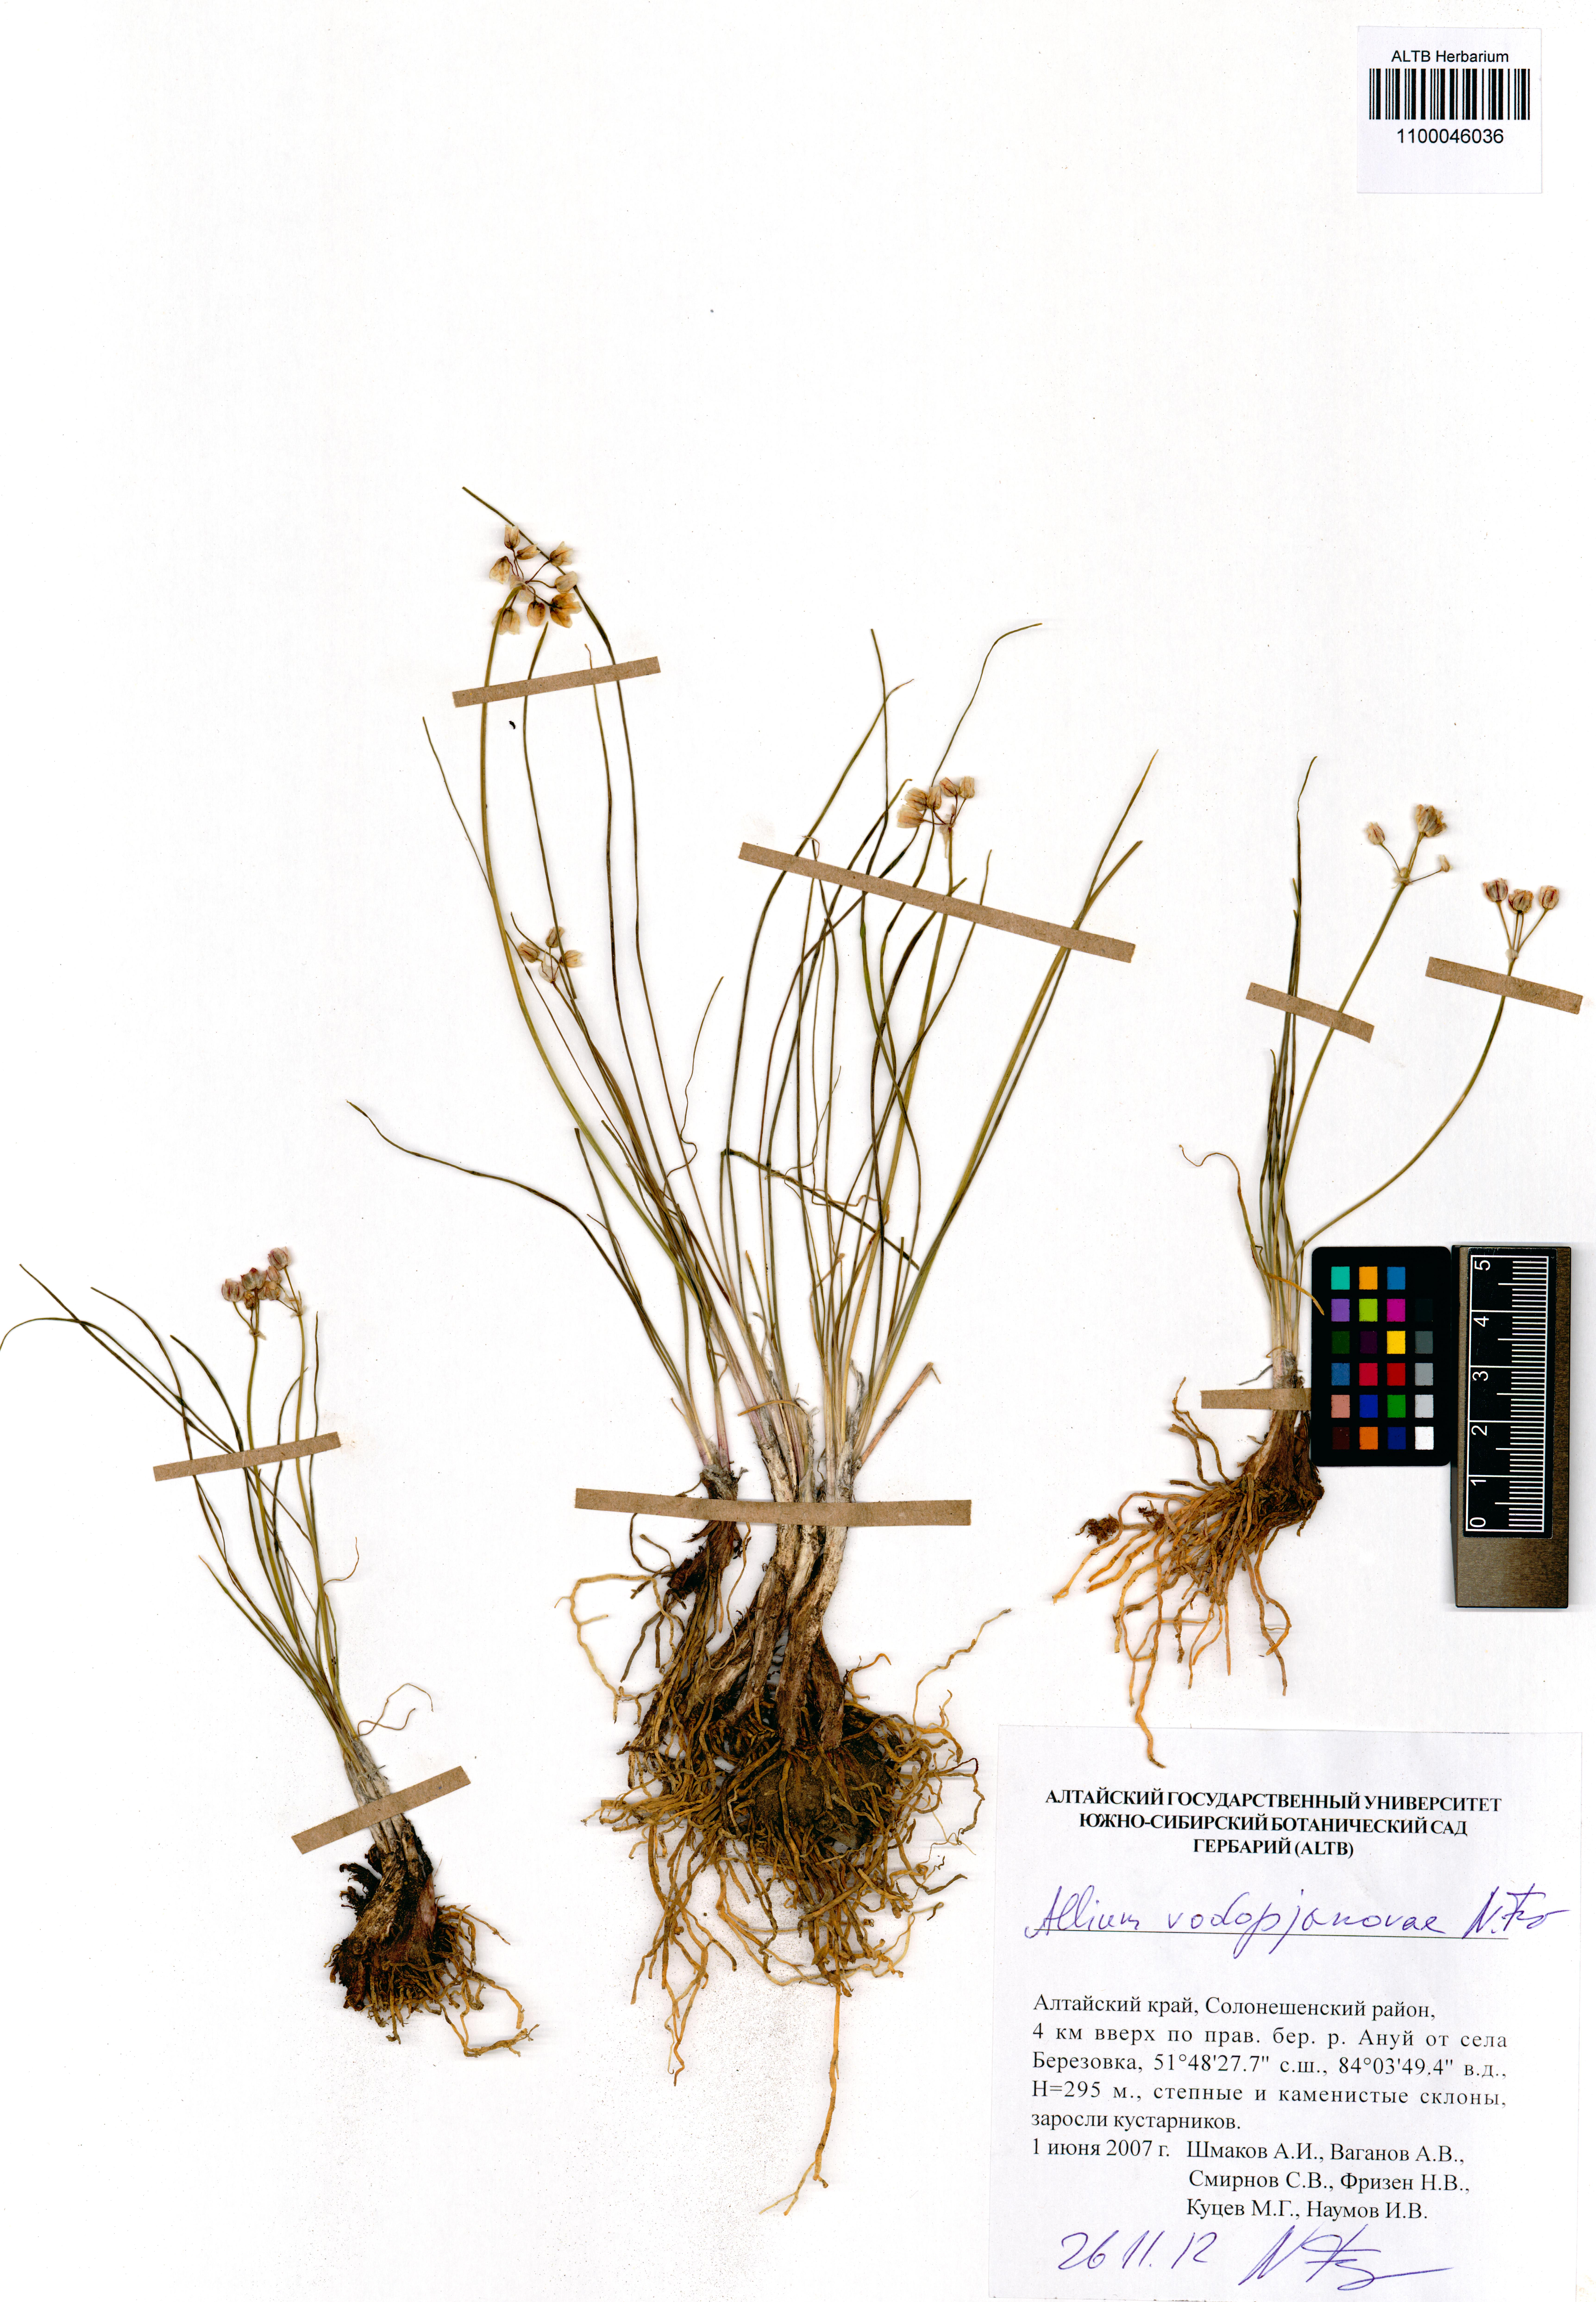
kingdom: Plantae
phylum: Tracheophyta
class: Liliopsida
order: Asparagales
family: Amaryllidaceae
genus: Allium
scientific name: Allium vodopjanovae
